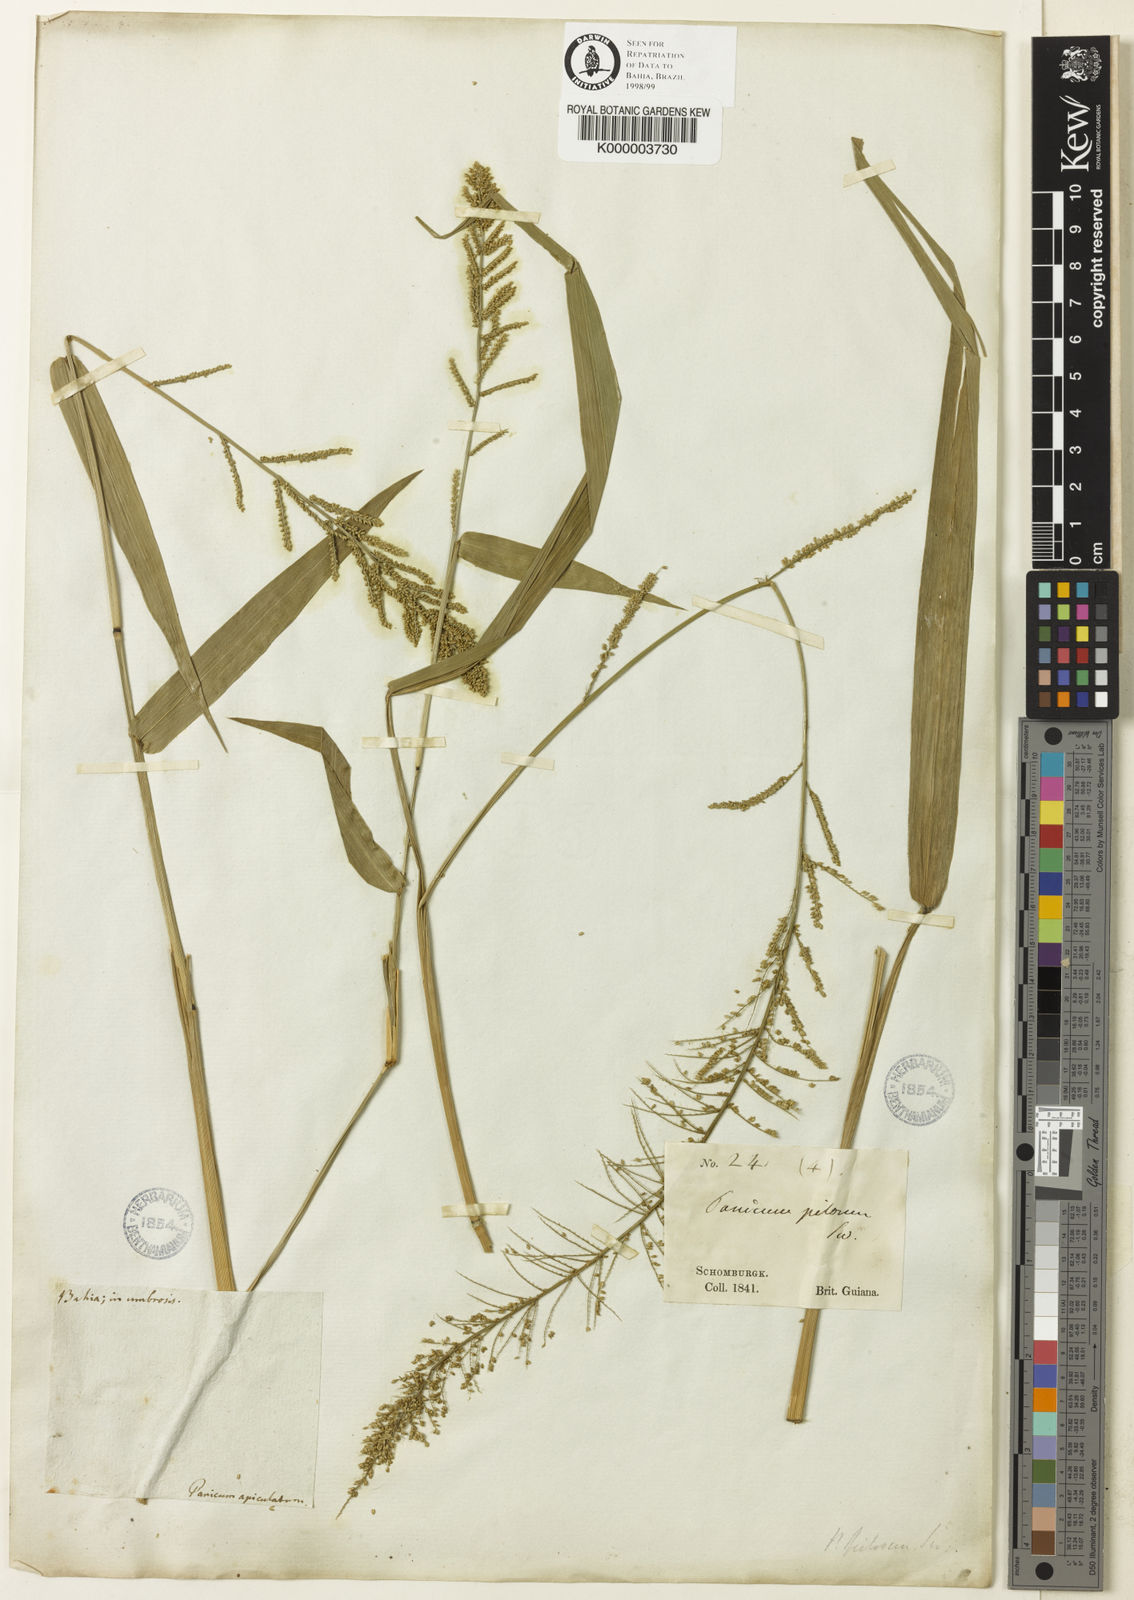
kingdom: Plantae
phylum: Tracheophyta
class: Liliopsida
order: Poales
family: Poaceae
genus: Rugoloa
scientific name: Rugoloa pilosa
